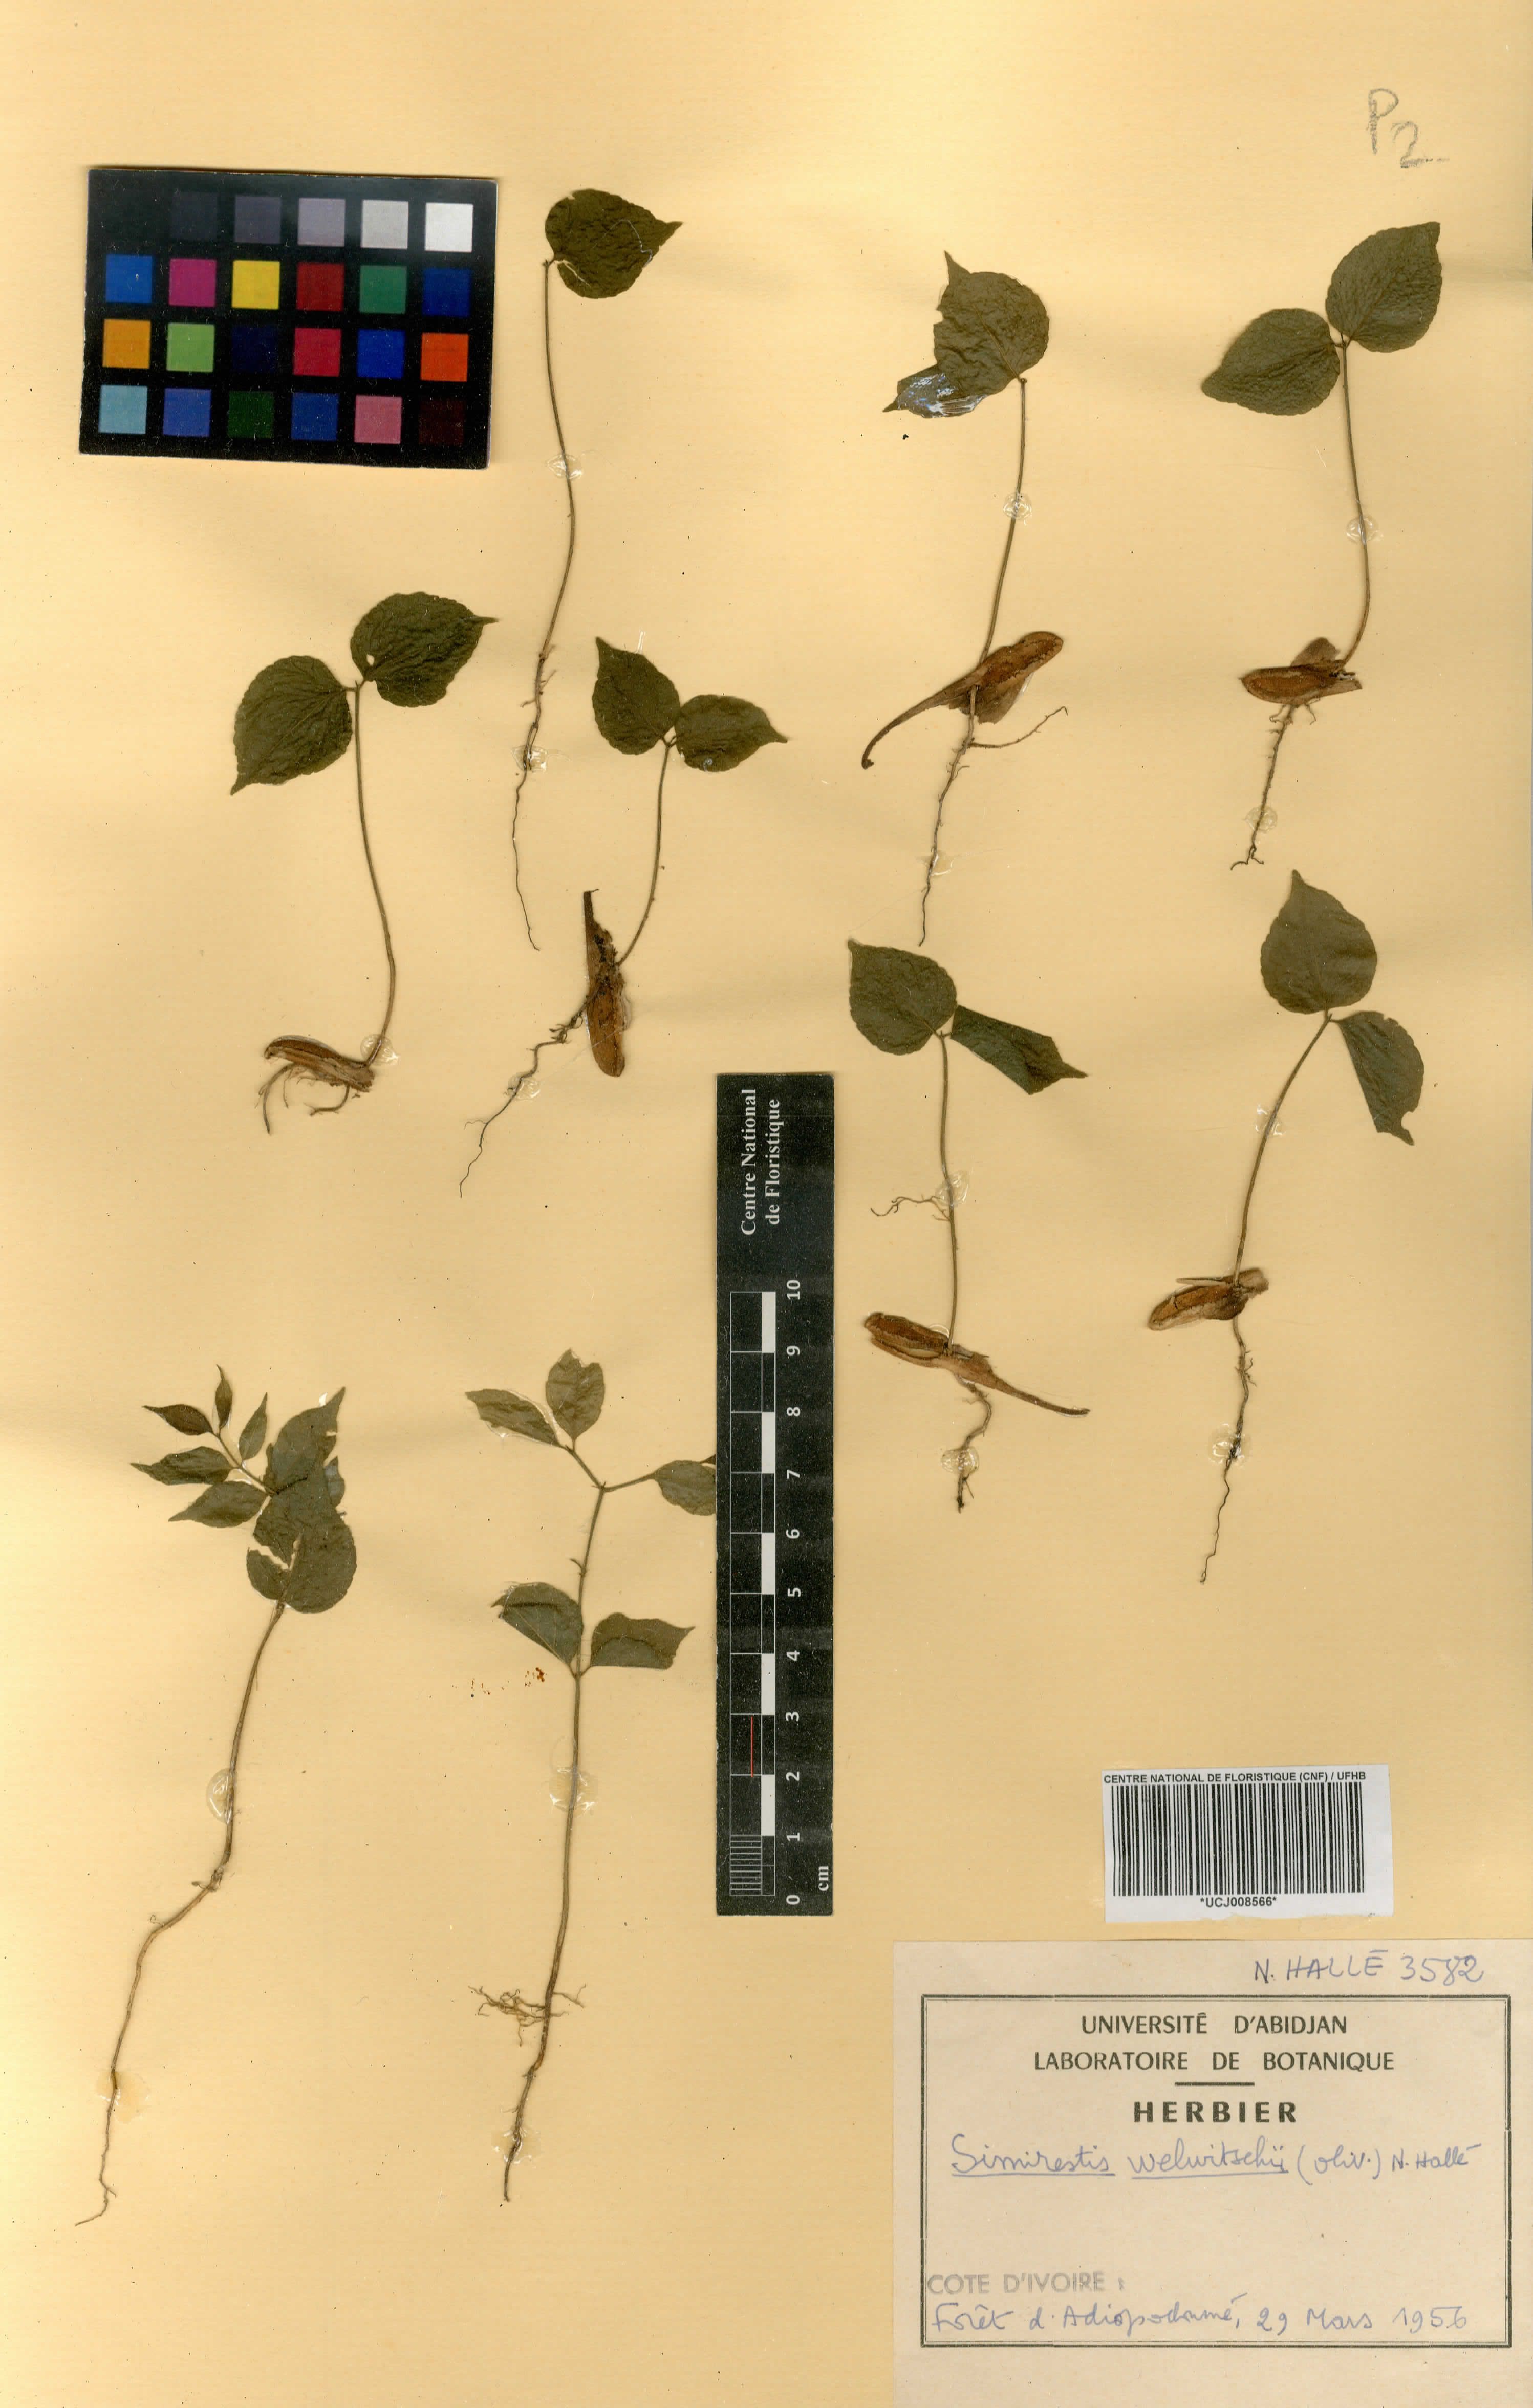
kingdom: Plantae
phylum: Tracheophyta
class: Magnoliopsida
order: Celastrales
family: Celastraceae
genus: Simicratea
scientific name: Simicratea welwitschii
